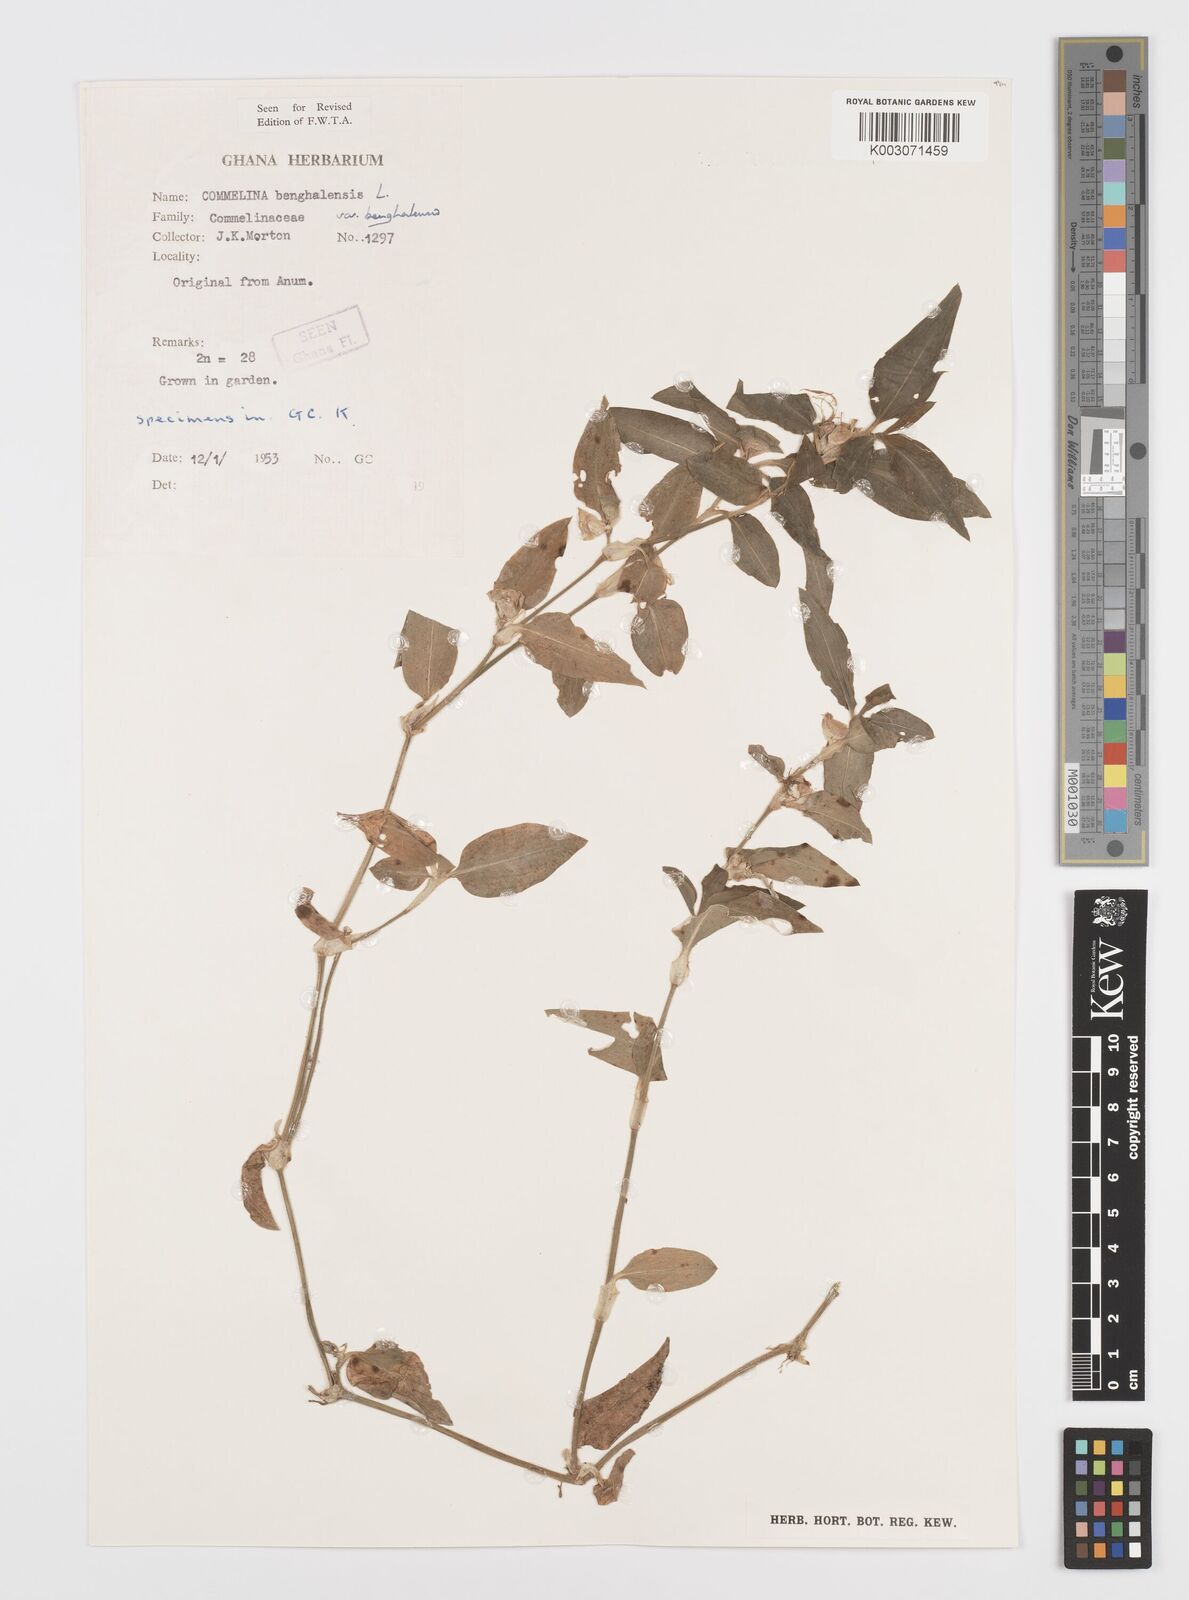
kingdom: Plantae
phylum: Tracheophyta
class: Liliopsida
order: Commelinales
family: Commelinaceae
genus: Commelina
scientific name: Commelina benghalensis
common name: Jio
